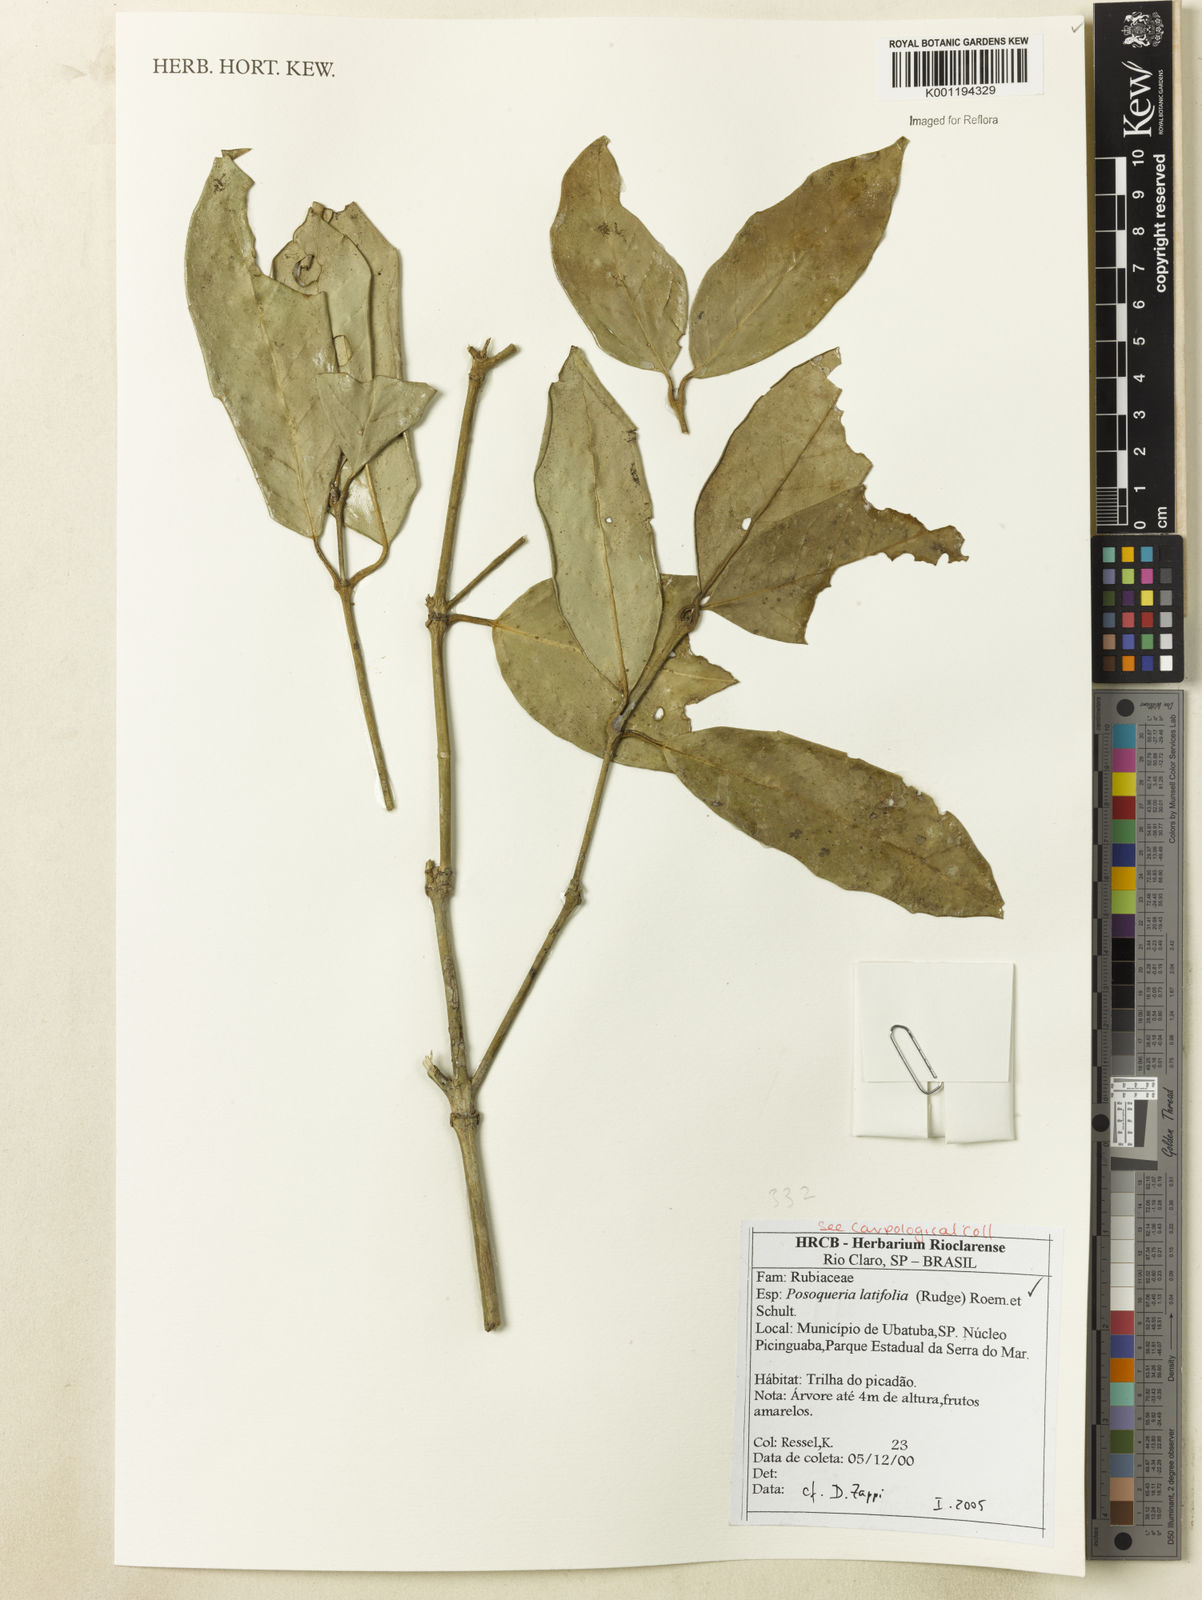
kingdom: Plantae
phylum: Tracheophyta
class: Magnoliopsida
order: Gentianales
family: Rubiaceae
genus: Posoqueria
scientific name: Posoqueria latifolia
